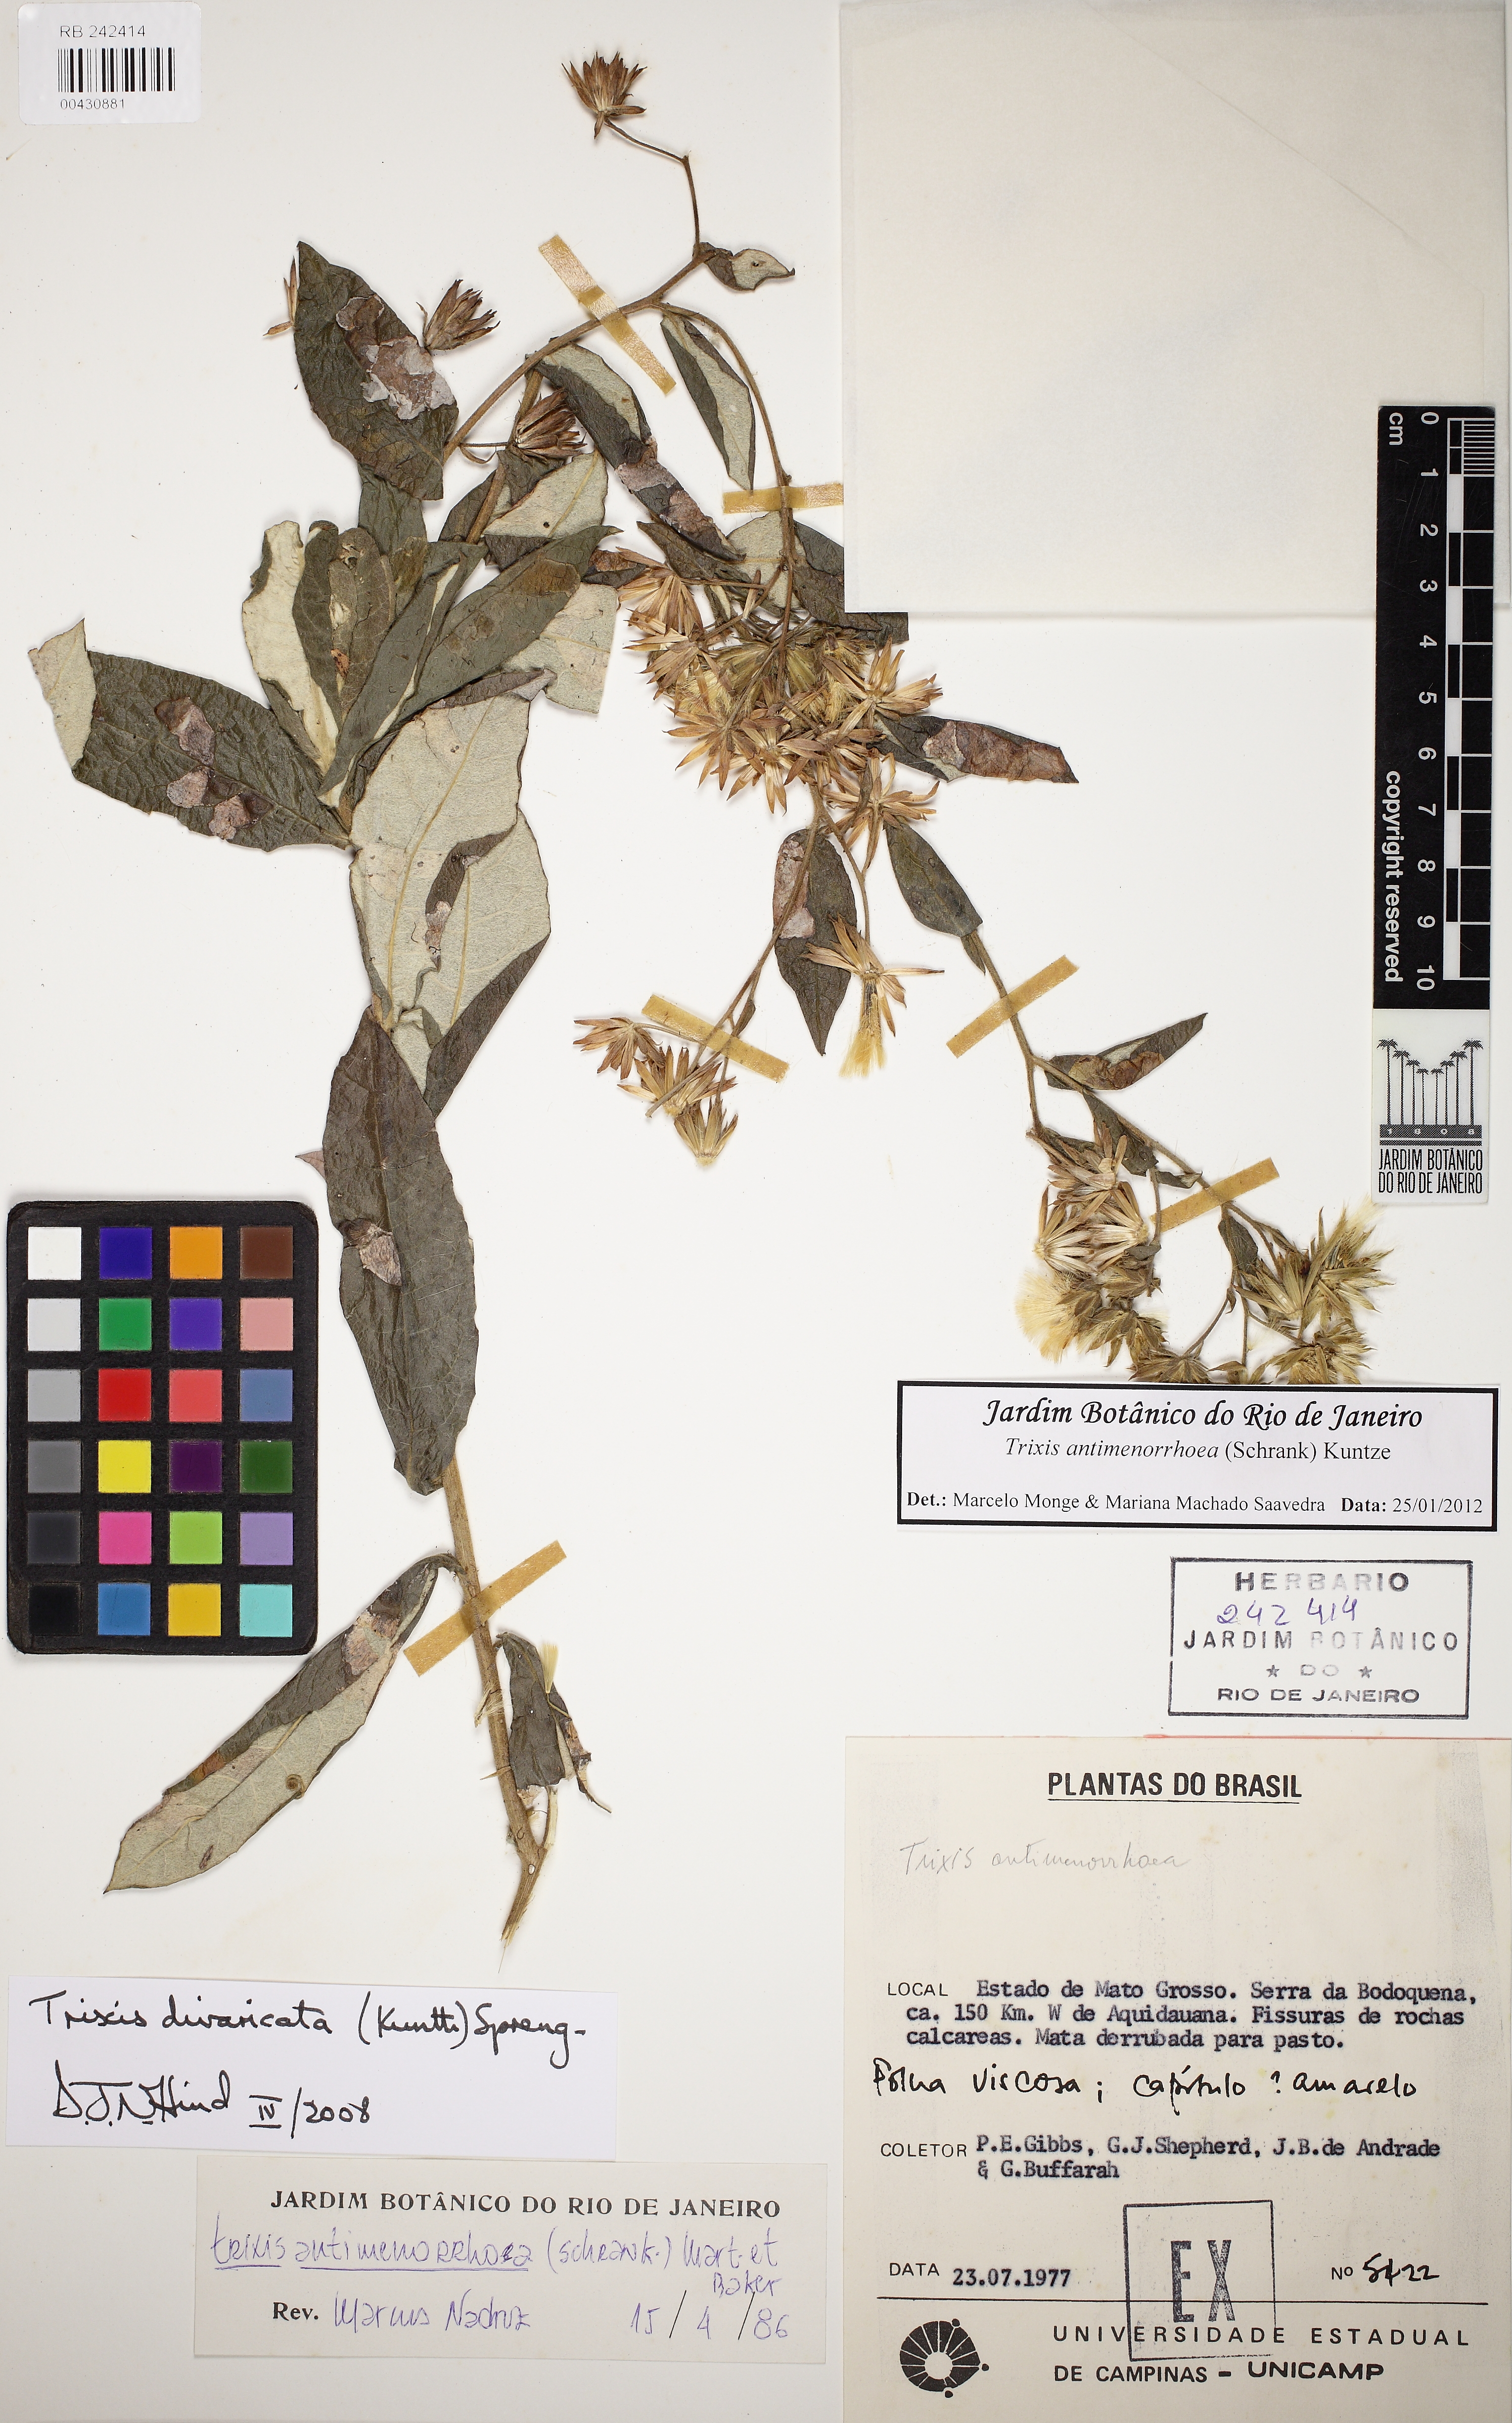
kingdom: Plantae
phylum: Tracheophyta
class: Magnoliopsida
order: Asterales
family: Asteraceae
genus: Trixis
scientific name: Trixis divaricata
